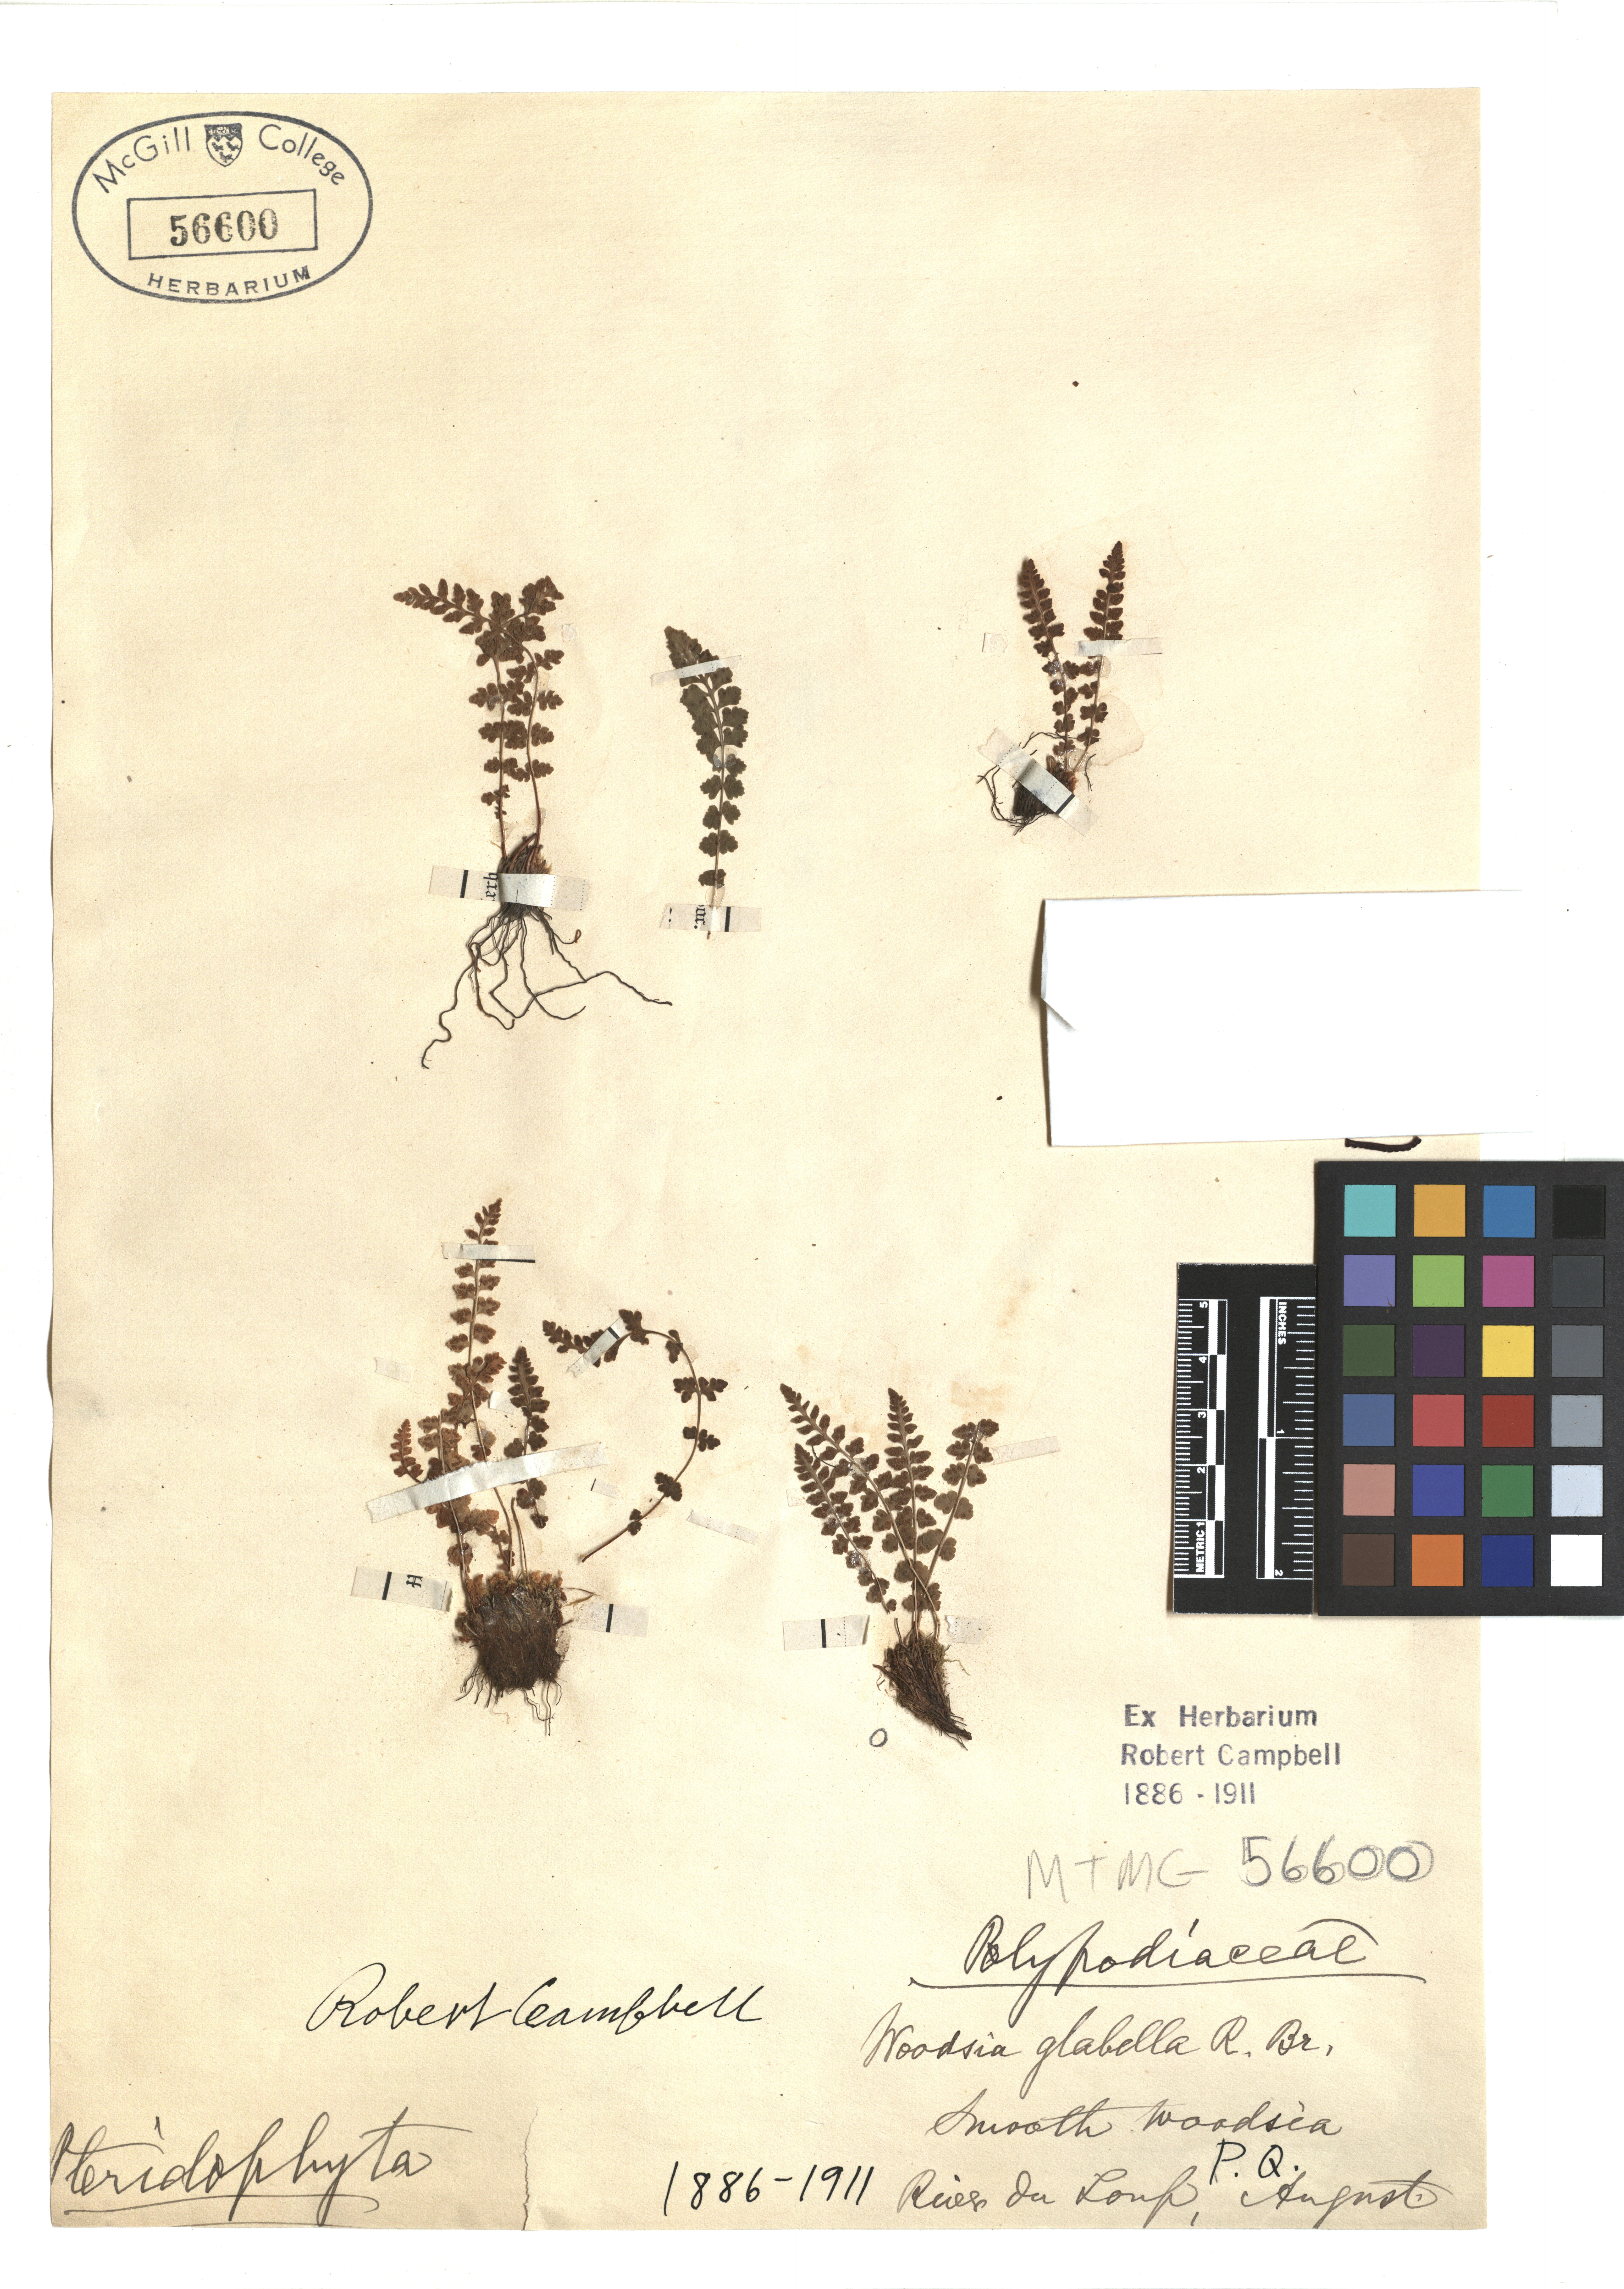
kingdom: Plantae
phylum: Tracheophyta
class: Polypodiopsida
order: Polypodiales
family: Woodsiaceae
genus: Woodsia
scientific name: Woodsia glabella
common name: Smooth woodsia
